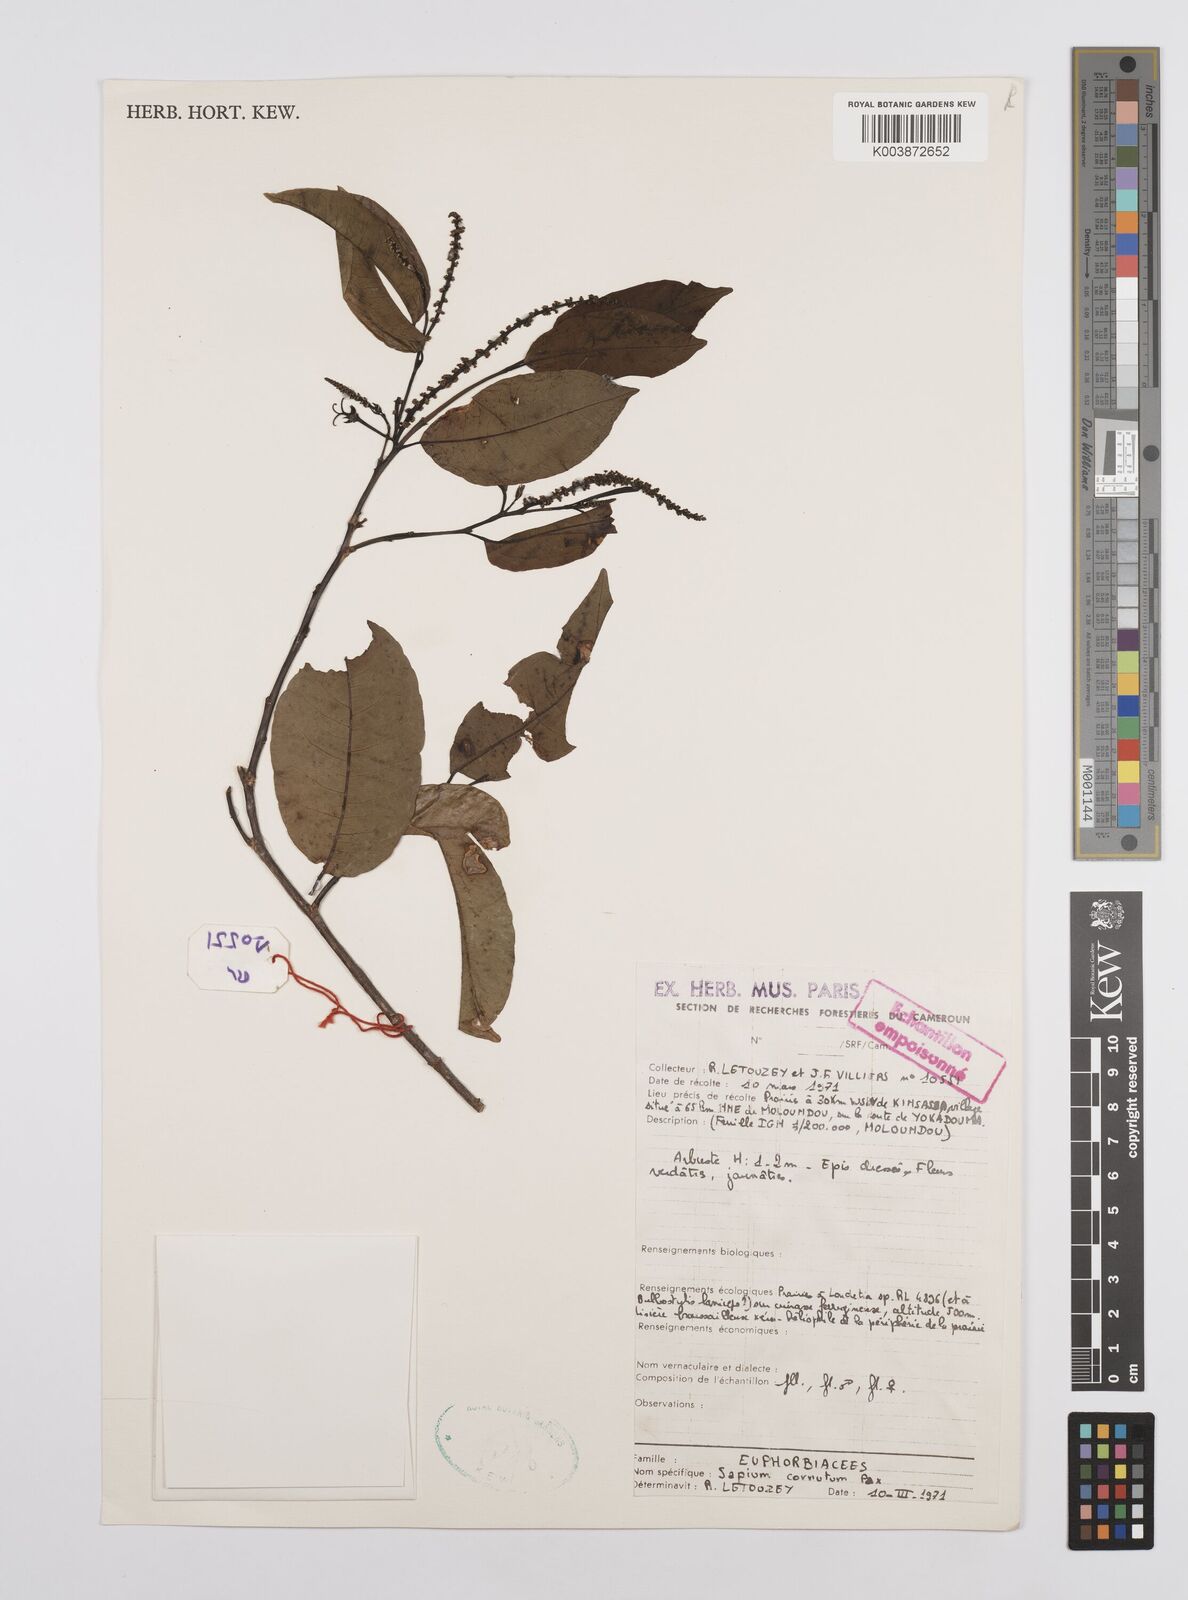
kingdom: Plantae
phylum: Tracheophyta
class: Magnoliopsida
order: Malpighiales
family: Euphorbiaceae
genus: Sclerocroton
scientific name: Sclerocroton cornutus
